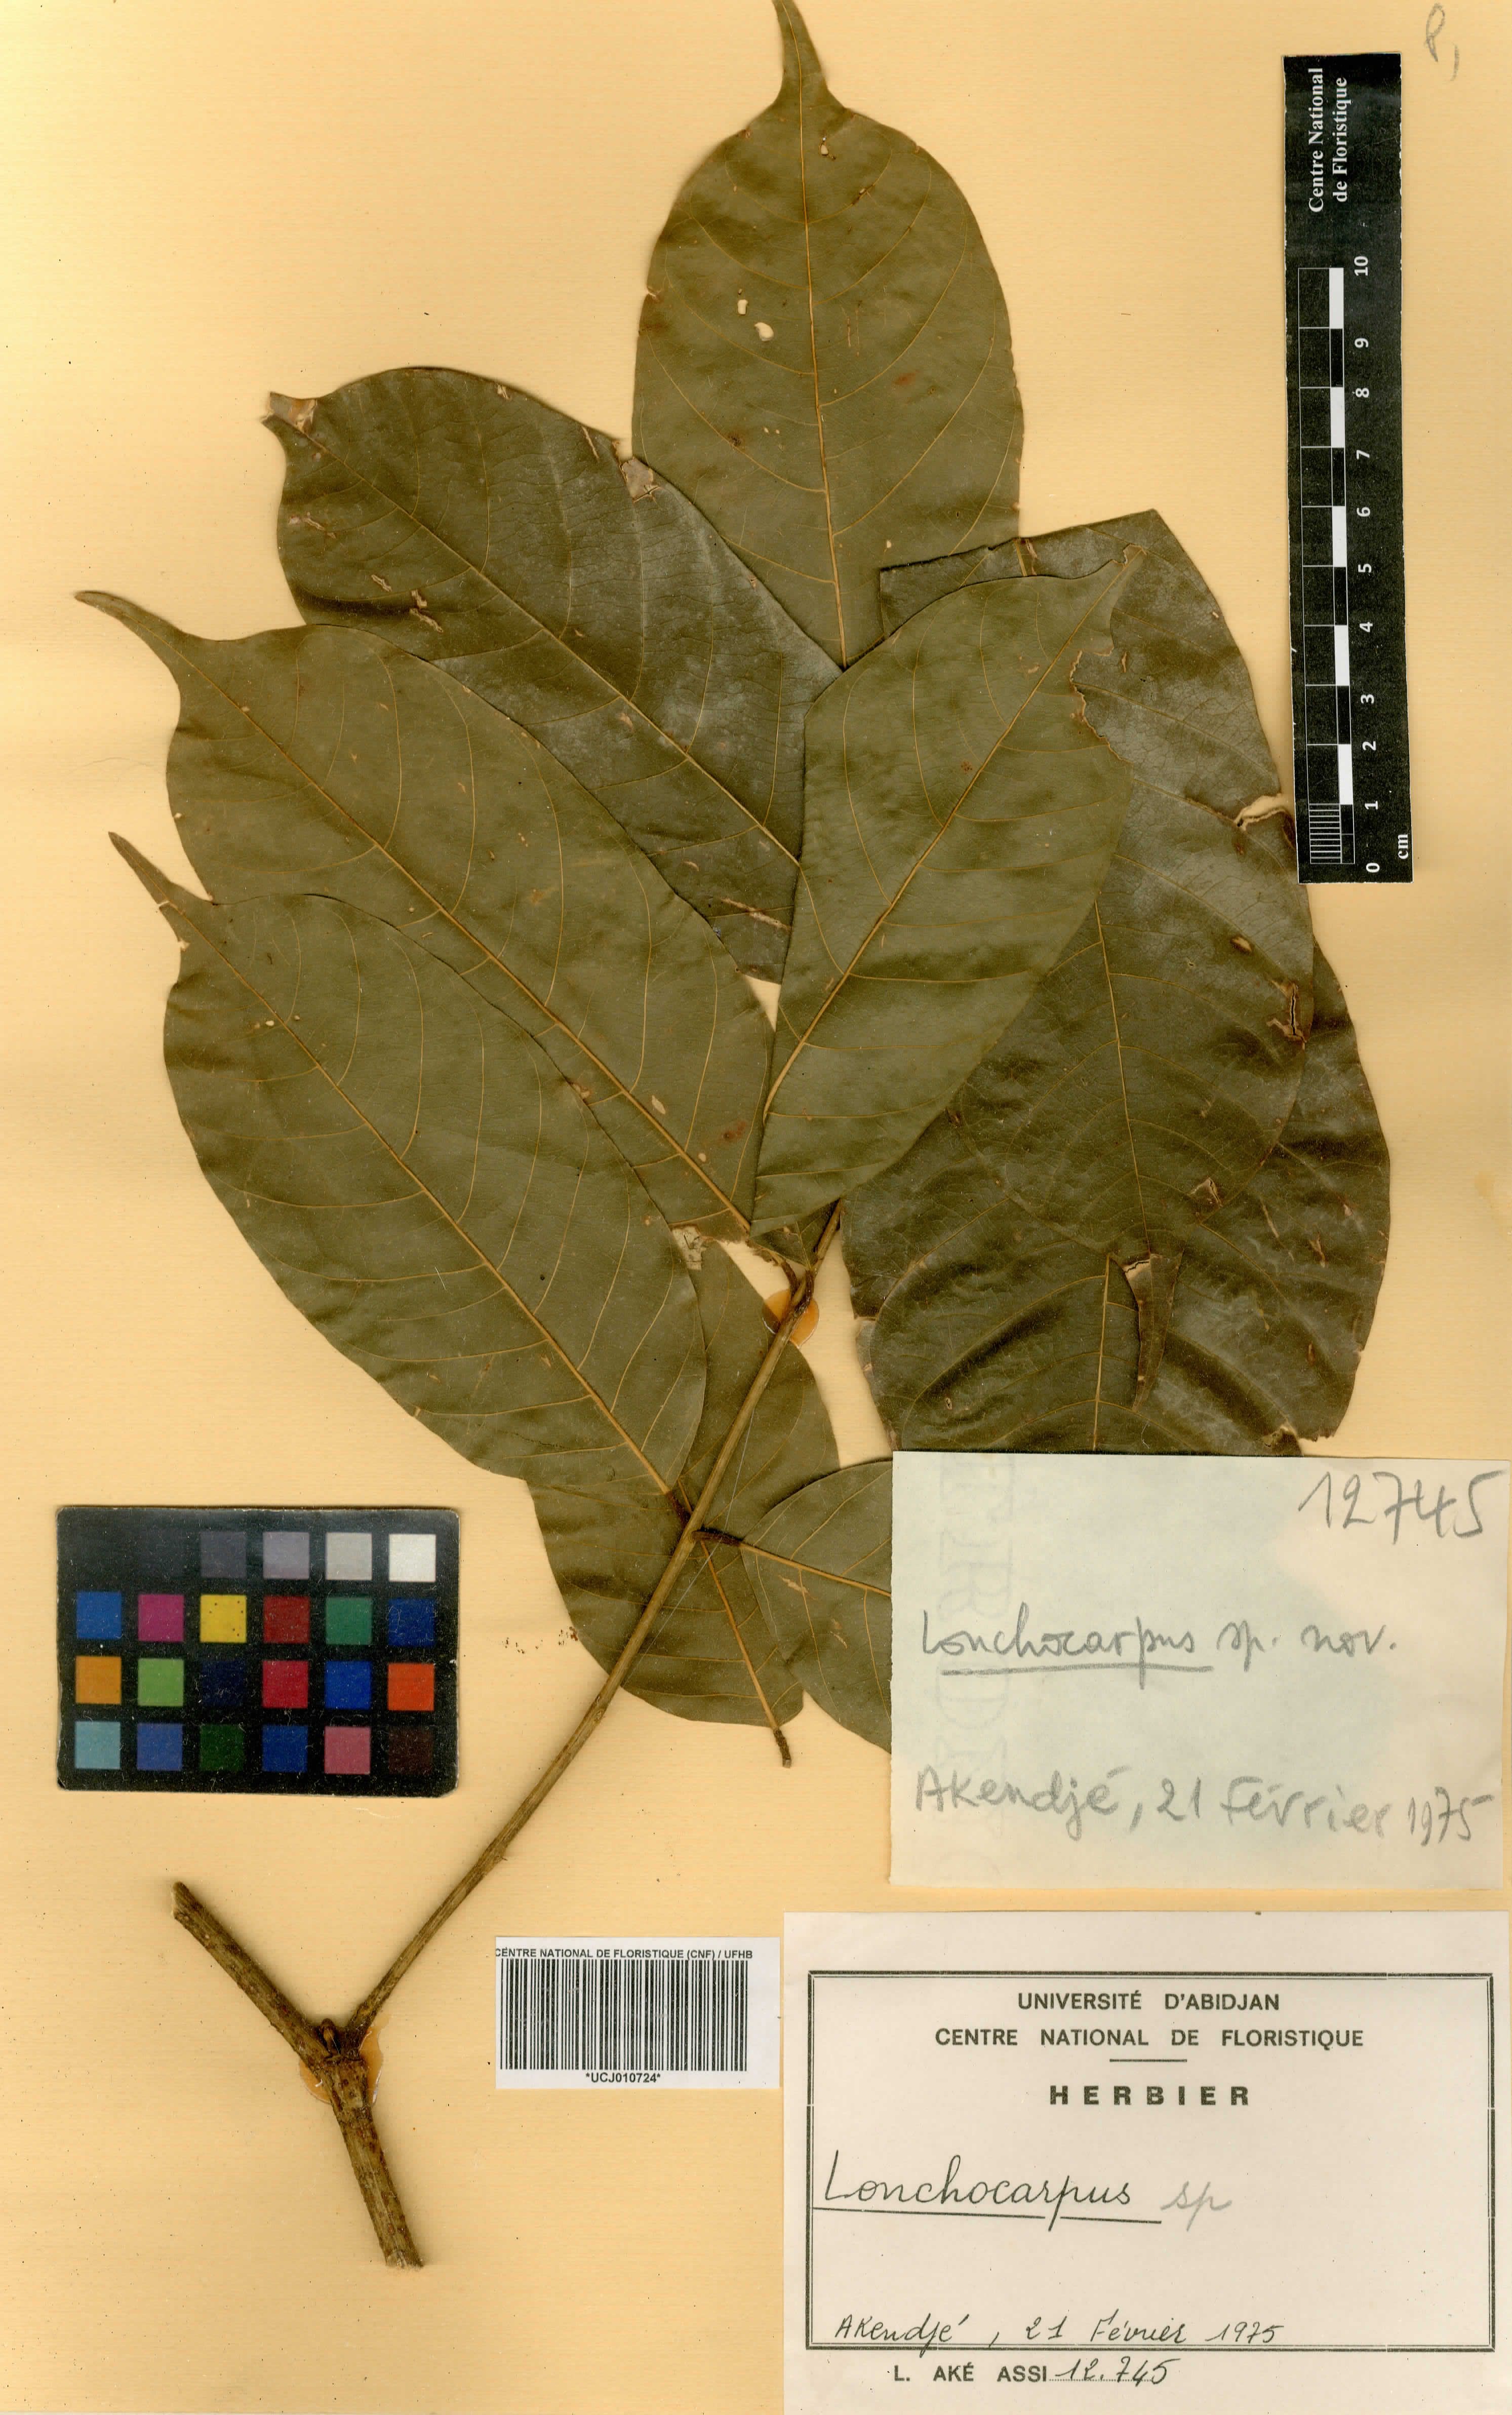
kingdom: Plantae
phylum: Tracheophyta
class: Magnoliopsida
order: Fabales
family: Fabaceae
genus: Lonchocarpus
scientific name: Lonchocarpus
